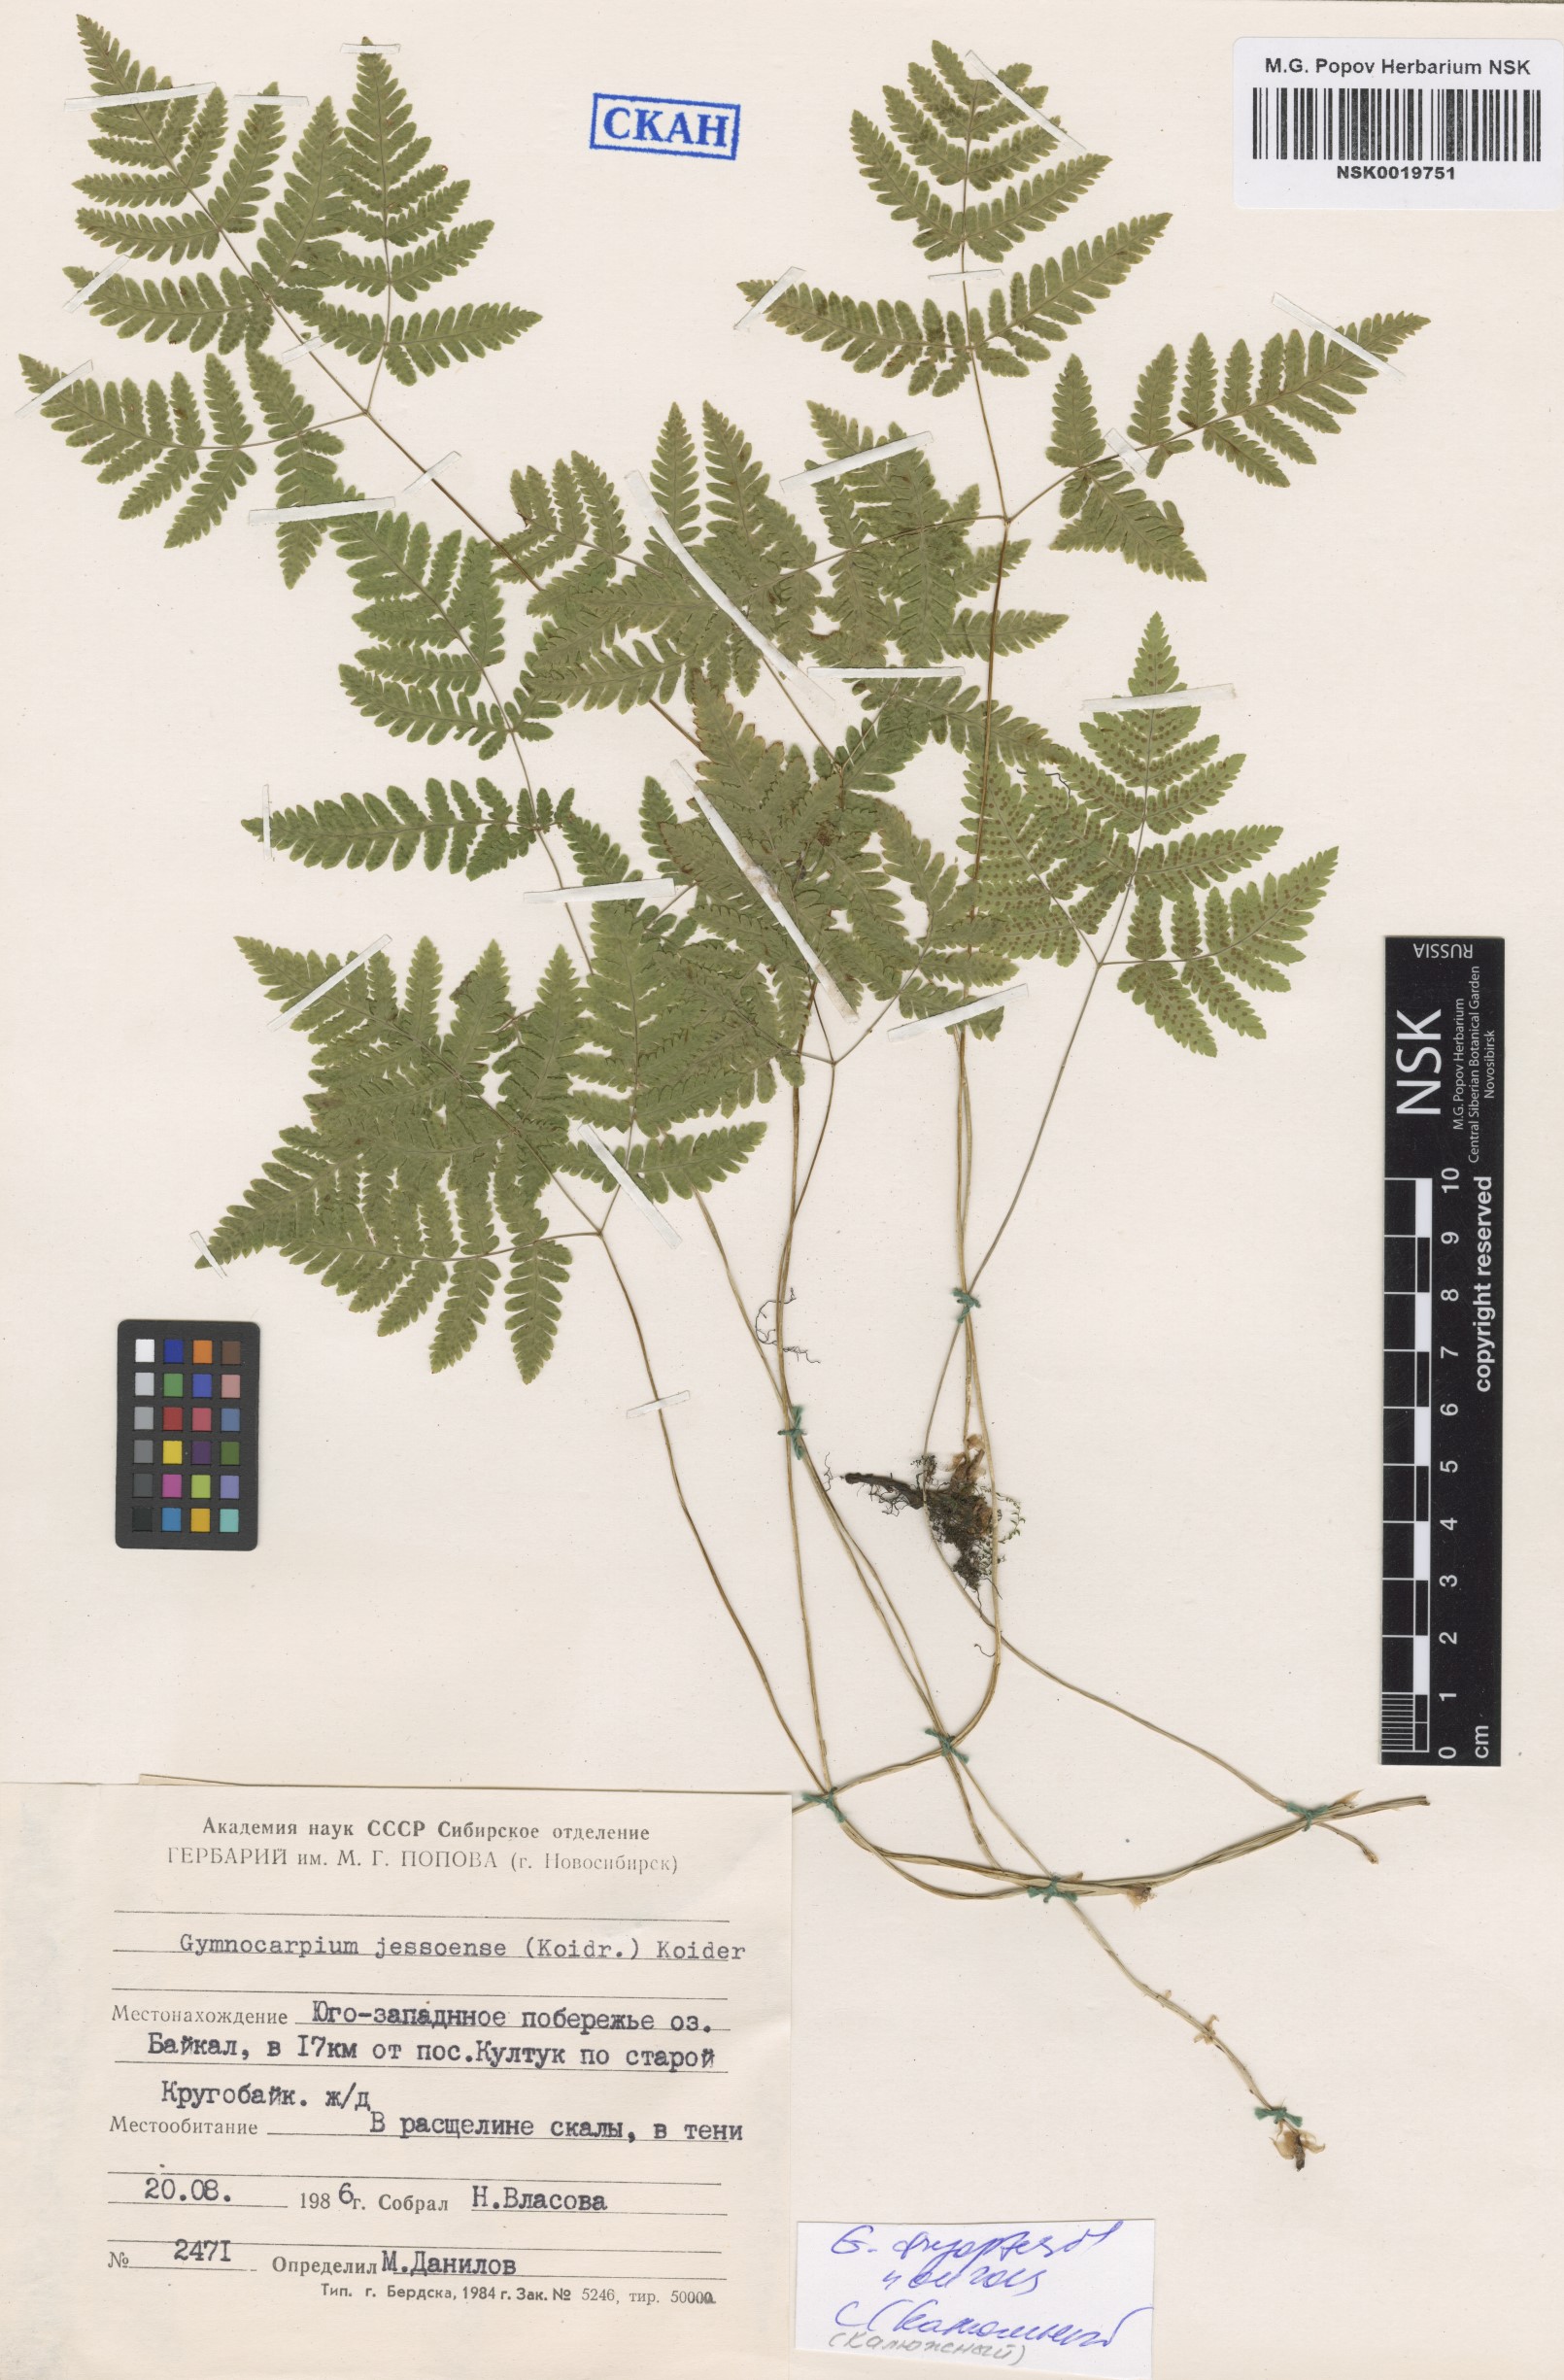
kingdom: Plantae
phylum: Tracheophyta
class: Polypodiopsida
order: Polypodiales
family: Cystopteridaceae
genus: Gymnocarpium
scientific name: Gymnocarpium dryopteris
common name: Oak fern
